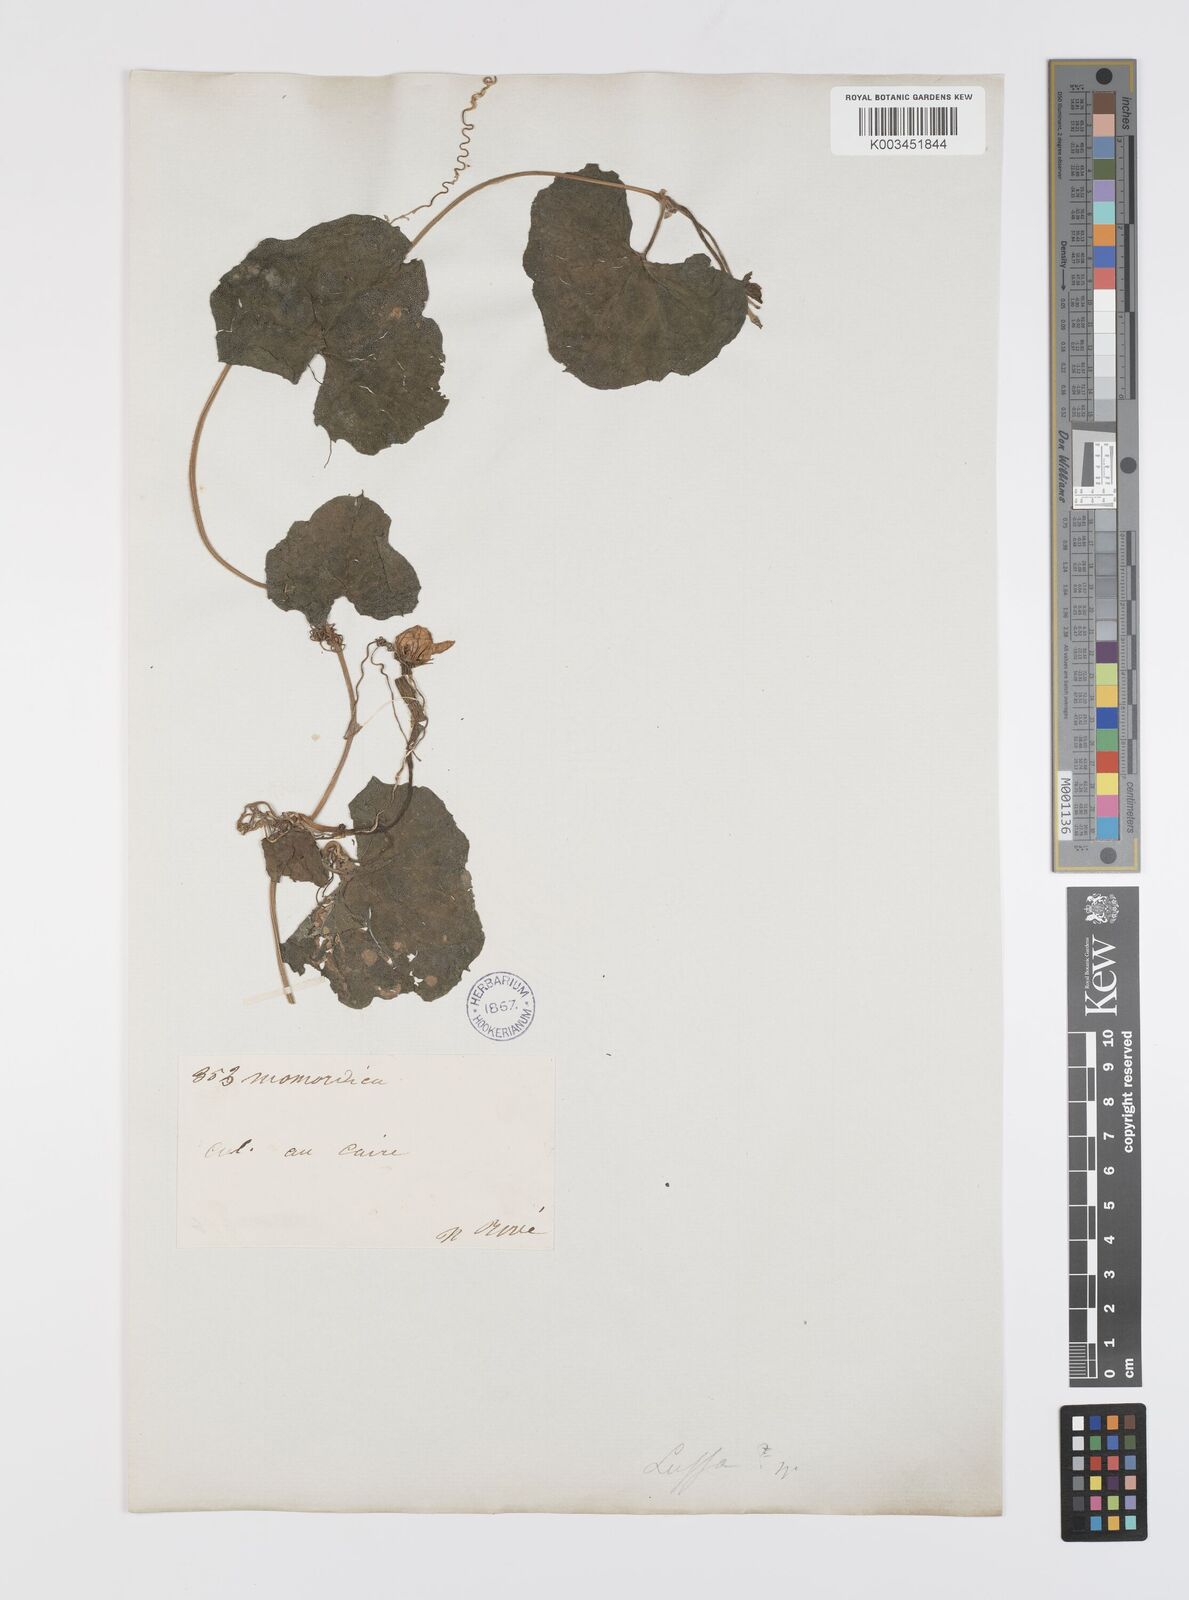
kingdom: Plantae
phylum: Tracheophyta
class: Magnoliopsida
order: Cucurbitales
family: Cucurbitaceae
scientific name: Cucurbitaceae
